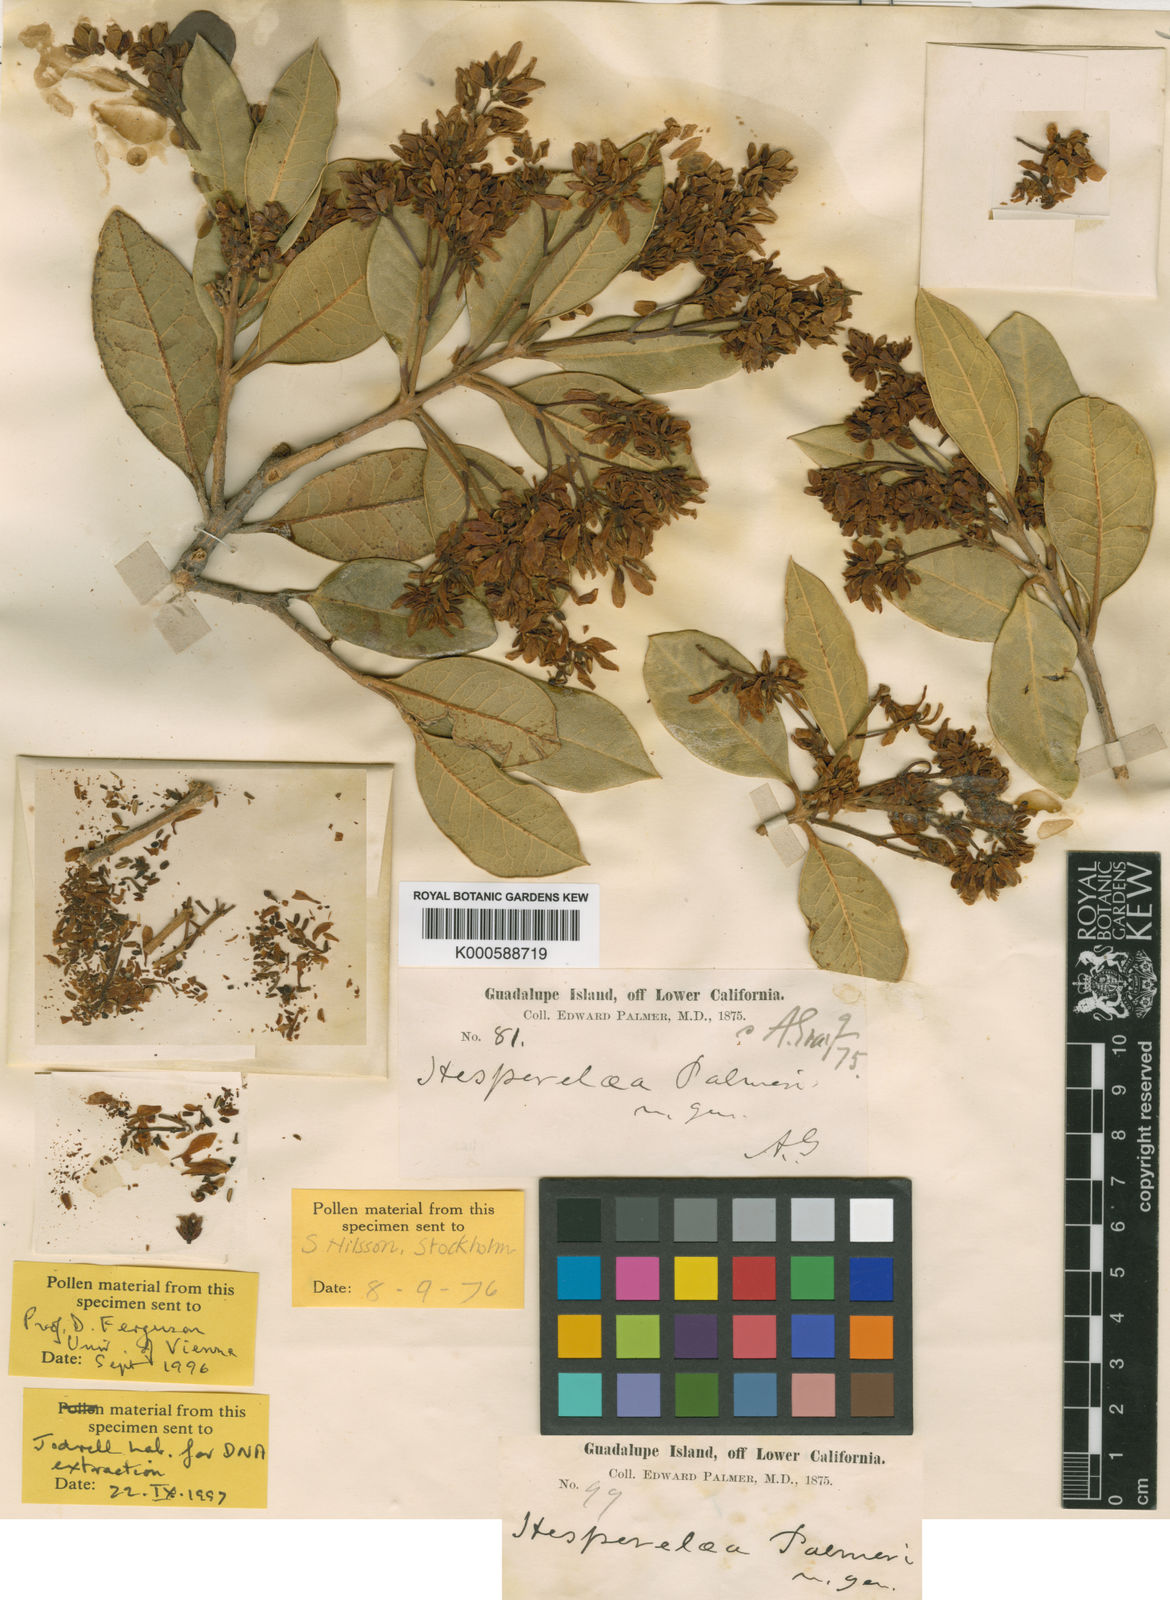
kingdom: Plantae
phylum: Tracheophyta
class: Magnoliopsida
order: Lamiales
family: Oleaceae
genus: Hesperelaea
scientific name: Hesperelaea palmeri
